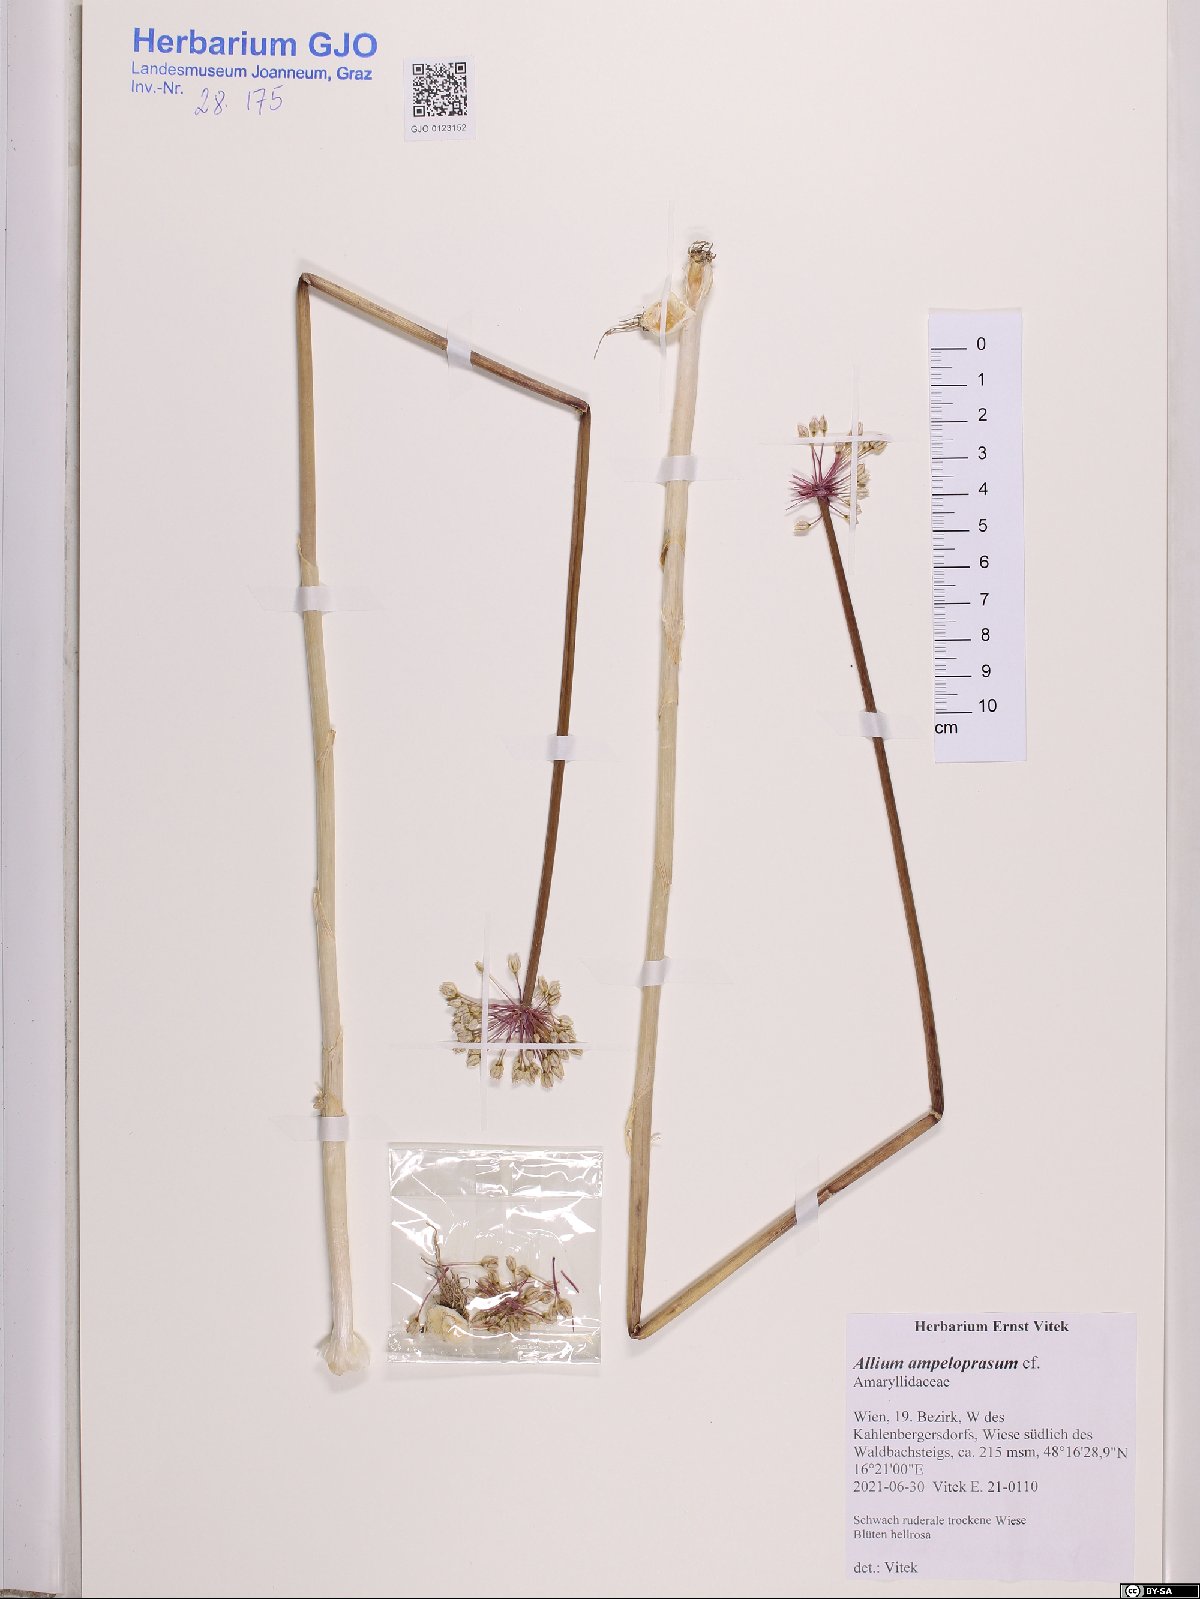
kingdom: Plantae
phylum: Tracheophyta
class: Liliopsida
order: Asparagales
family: Amaryllidaceae
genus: Allium
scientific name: Allium ampeloprasum
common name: Wild leek
